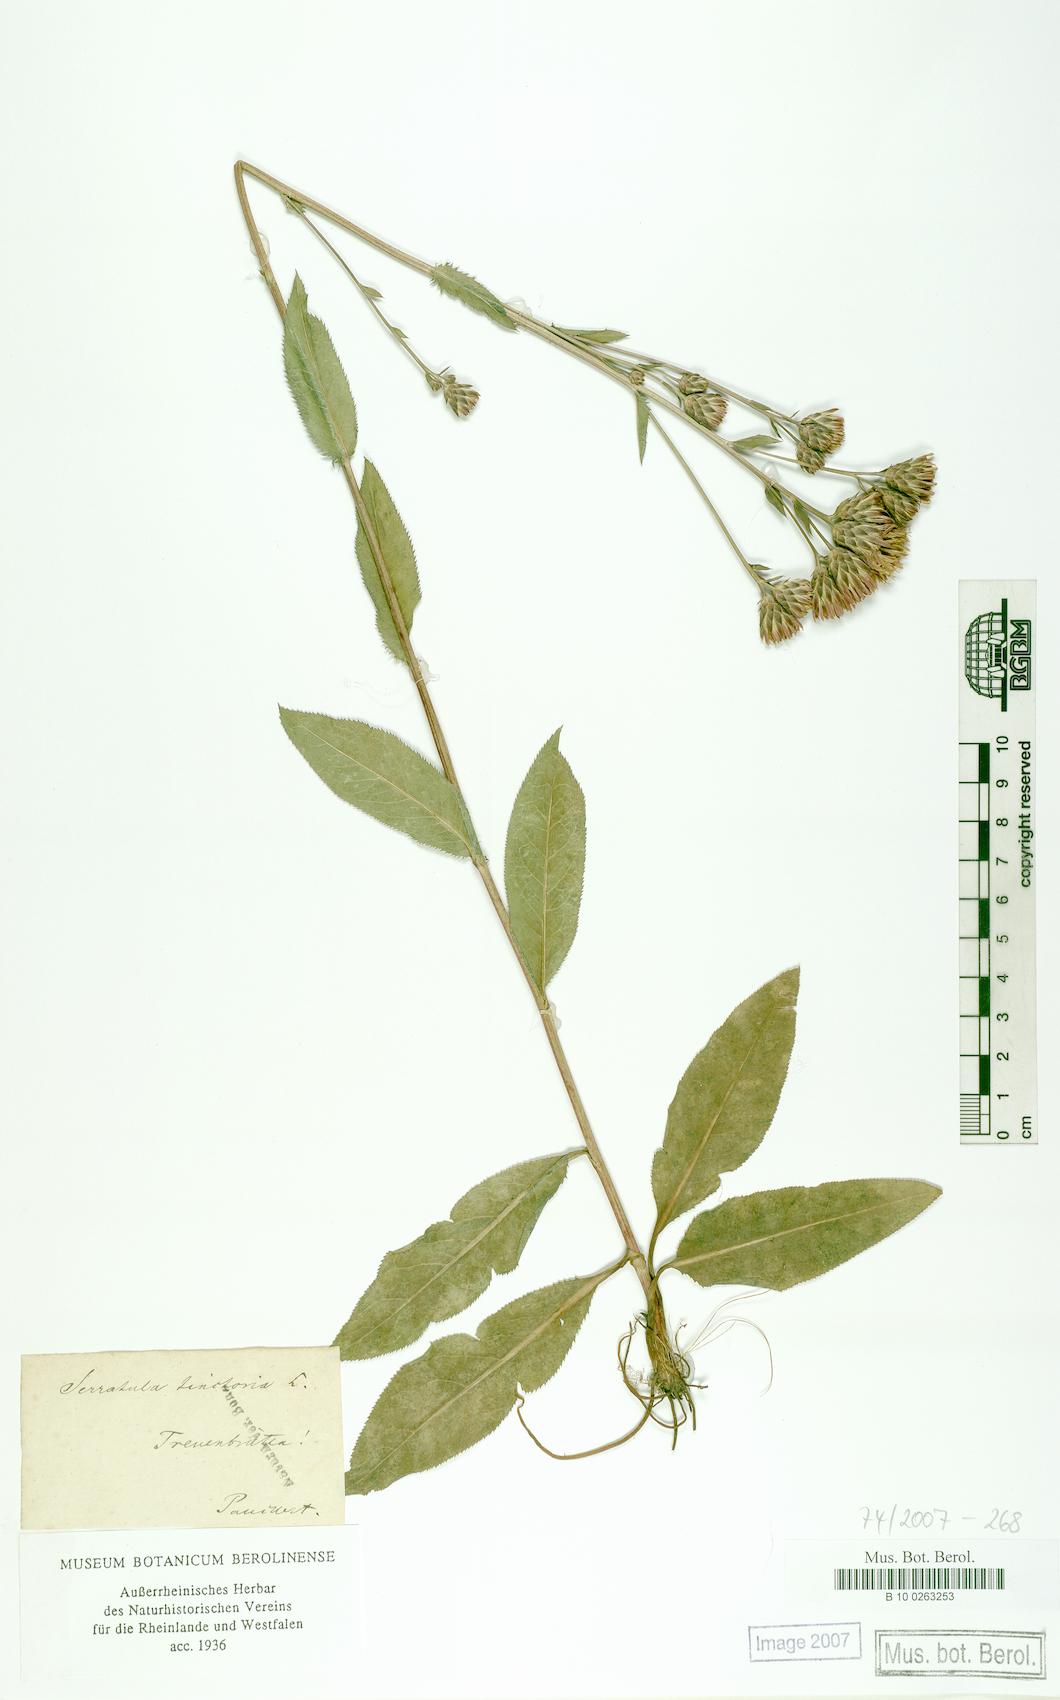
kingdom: Plantae
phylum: Tracheophyta
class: Magnoliopsida
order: Asterales
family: Asteraceae
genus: Serratula
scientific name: Serratula tinctoria
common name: Saw-wort
